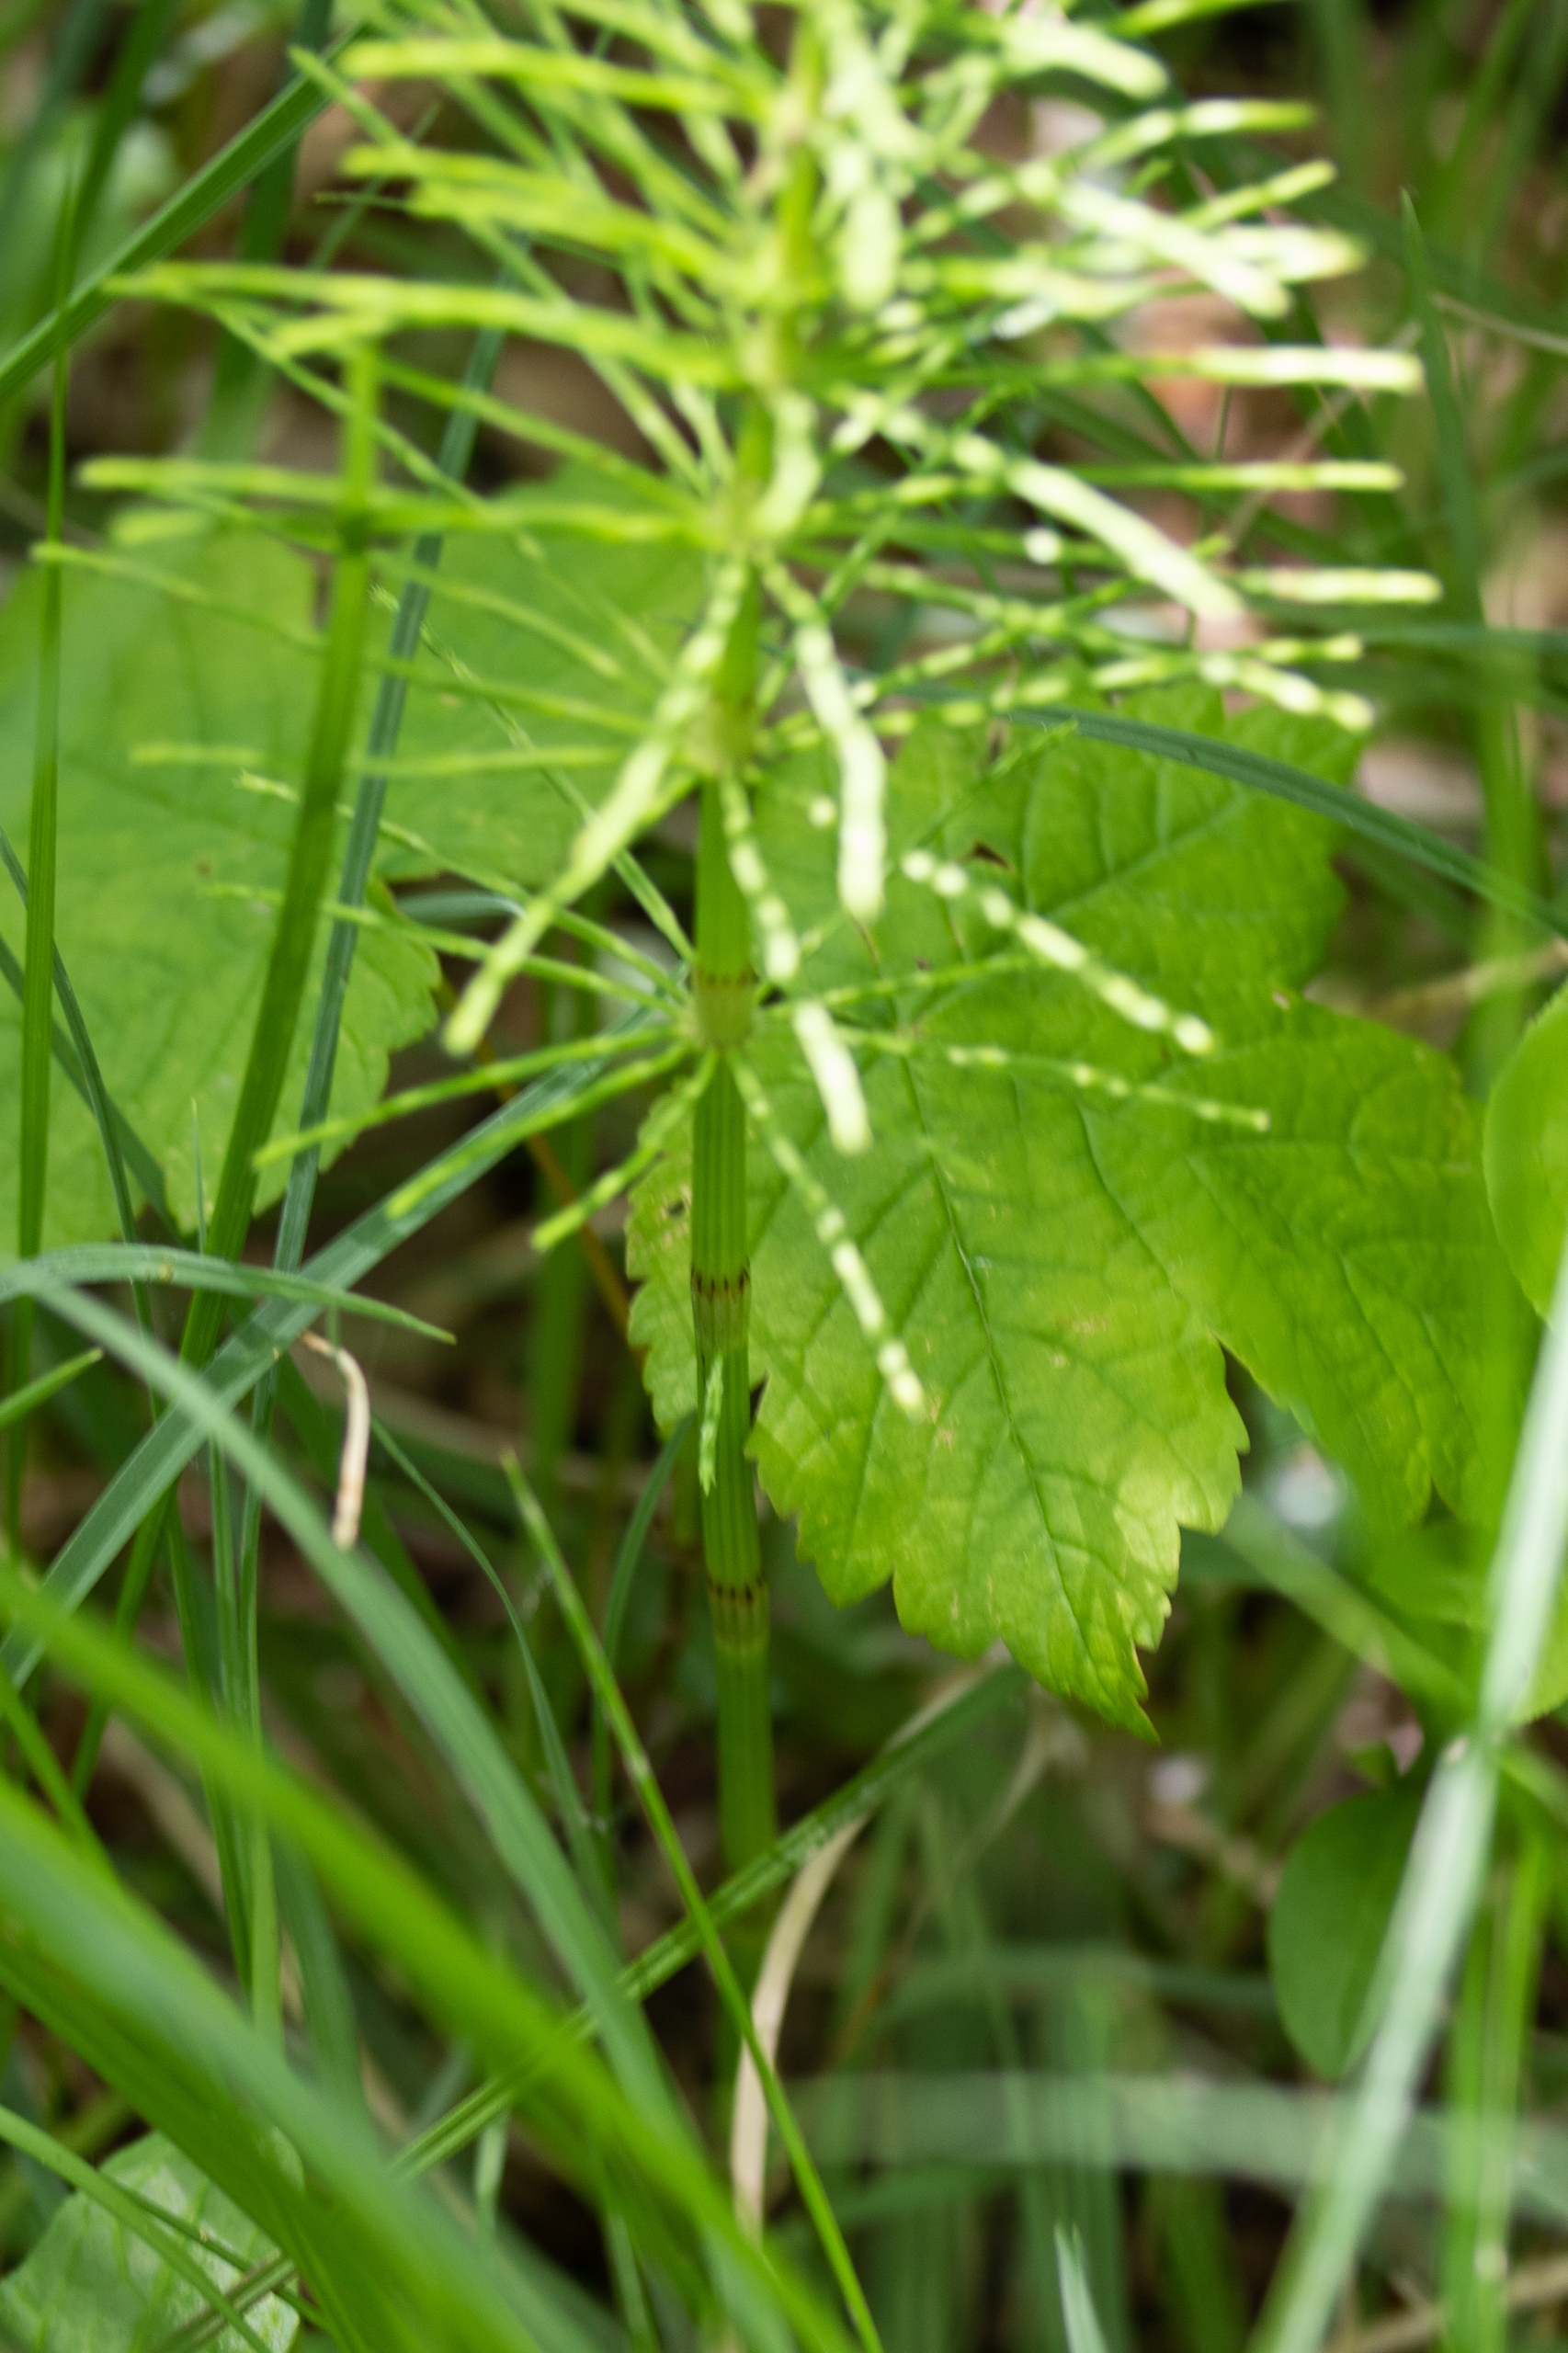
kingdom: Plantae
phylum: Tracheophyta
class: Polypodiopsida
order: Equisetales
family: Equisetaceae
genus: Equisetum
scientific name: Equisetum fluviatile
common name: Dynd-padderok
